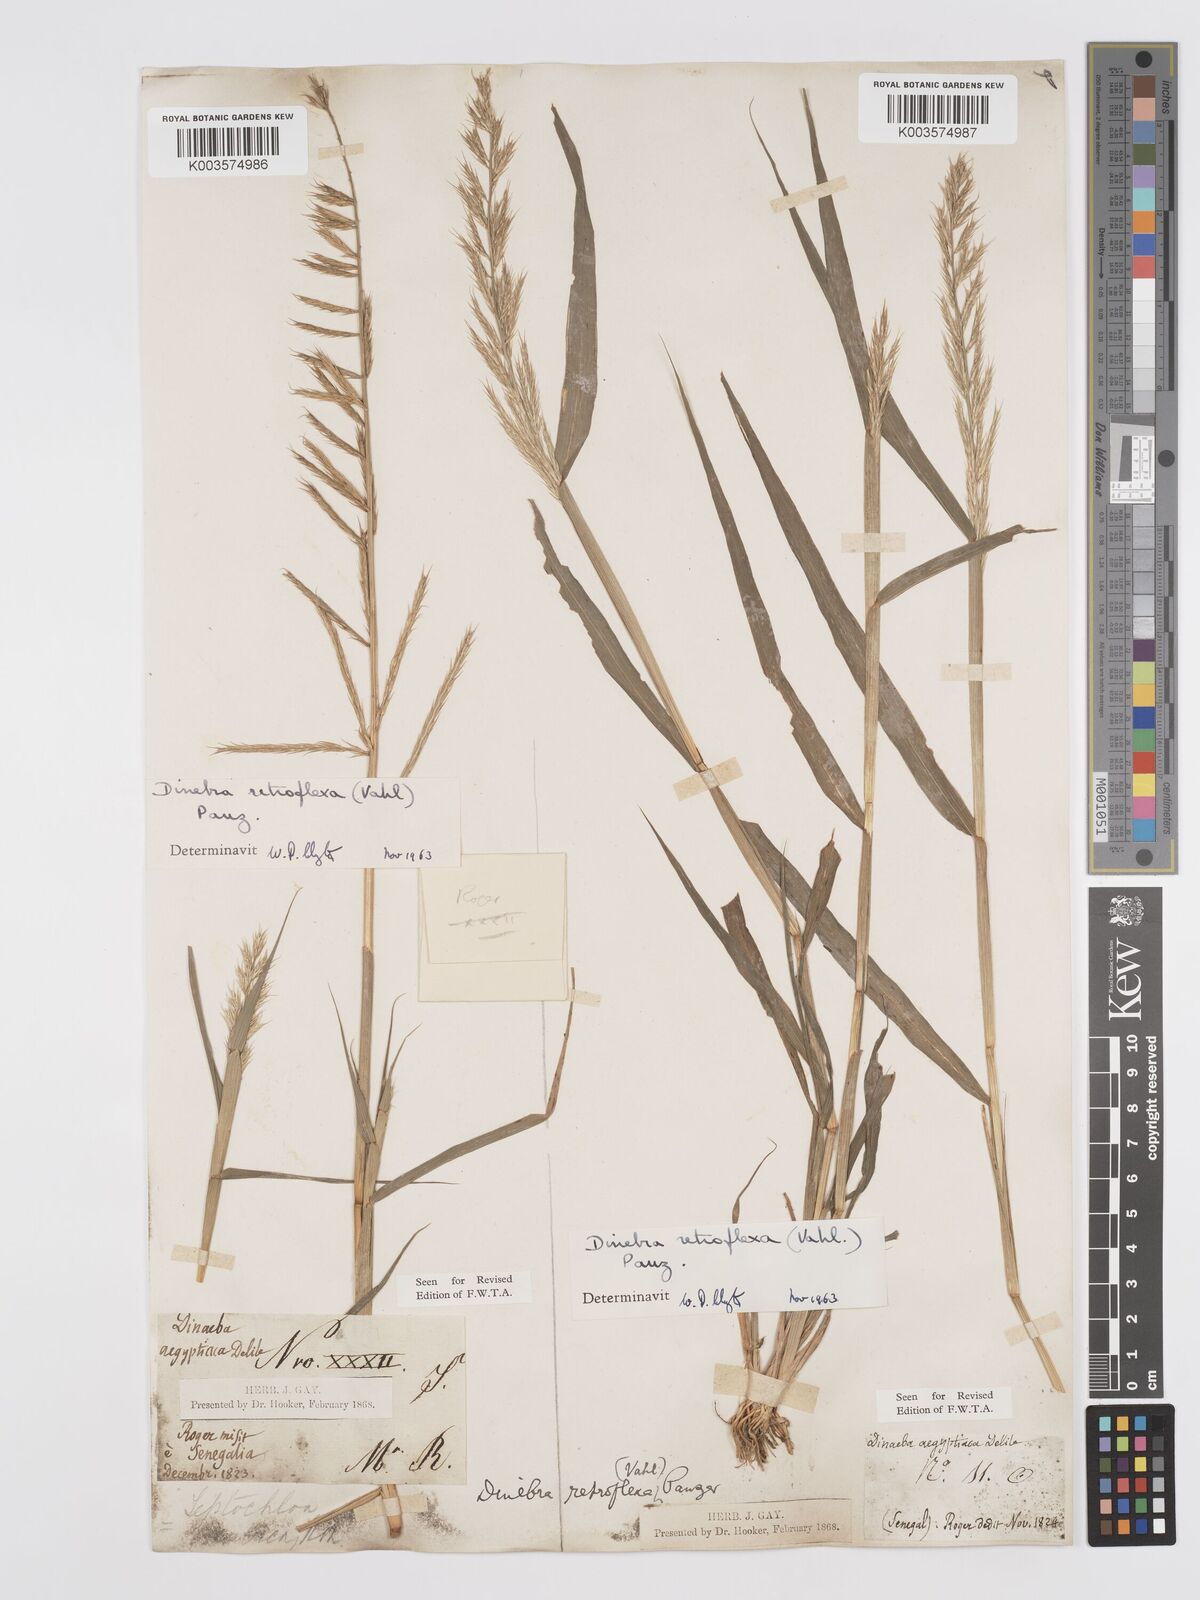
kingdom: Plantae
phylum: Tracheophyta
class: Liliopsida
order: Poales
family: Poaceae
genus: Dinebra
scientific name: Dinebra retroflexa
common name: Viper grass
